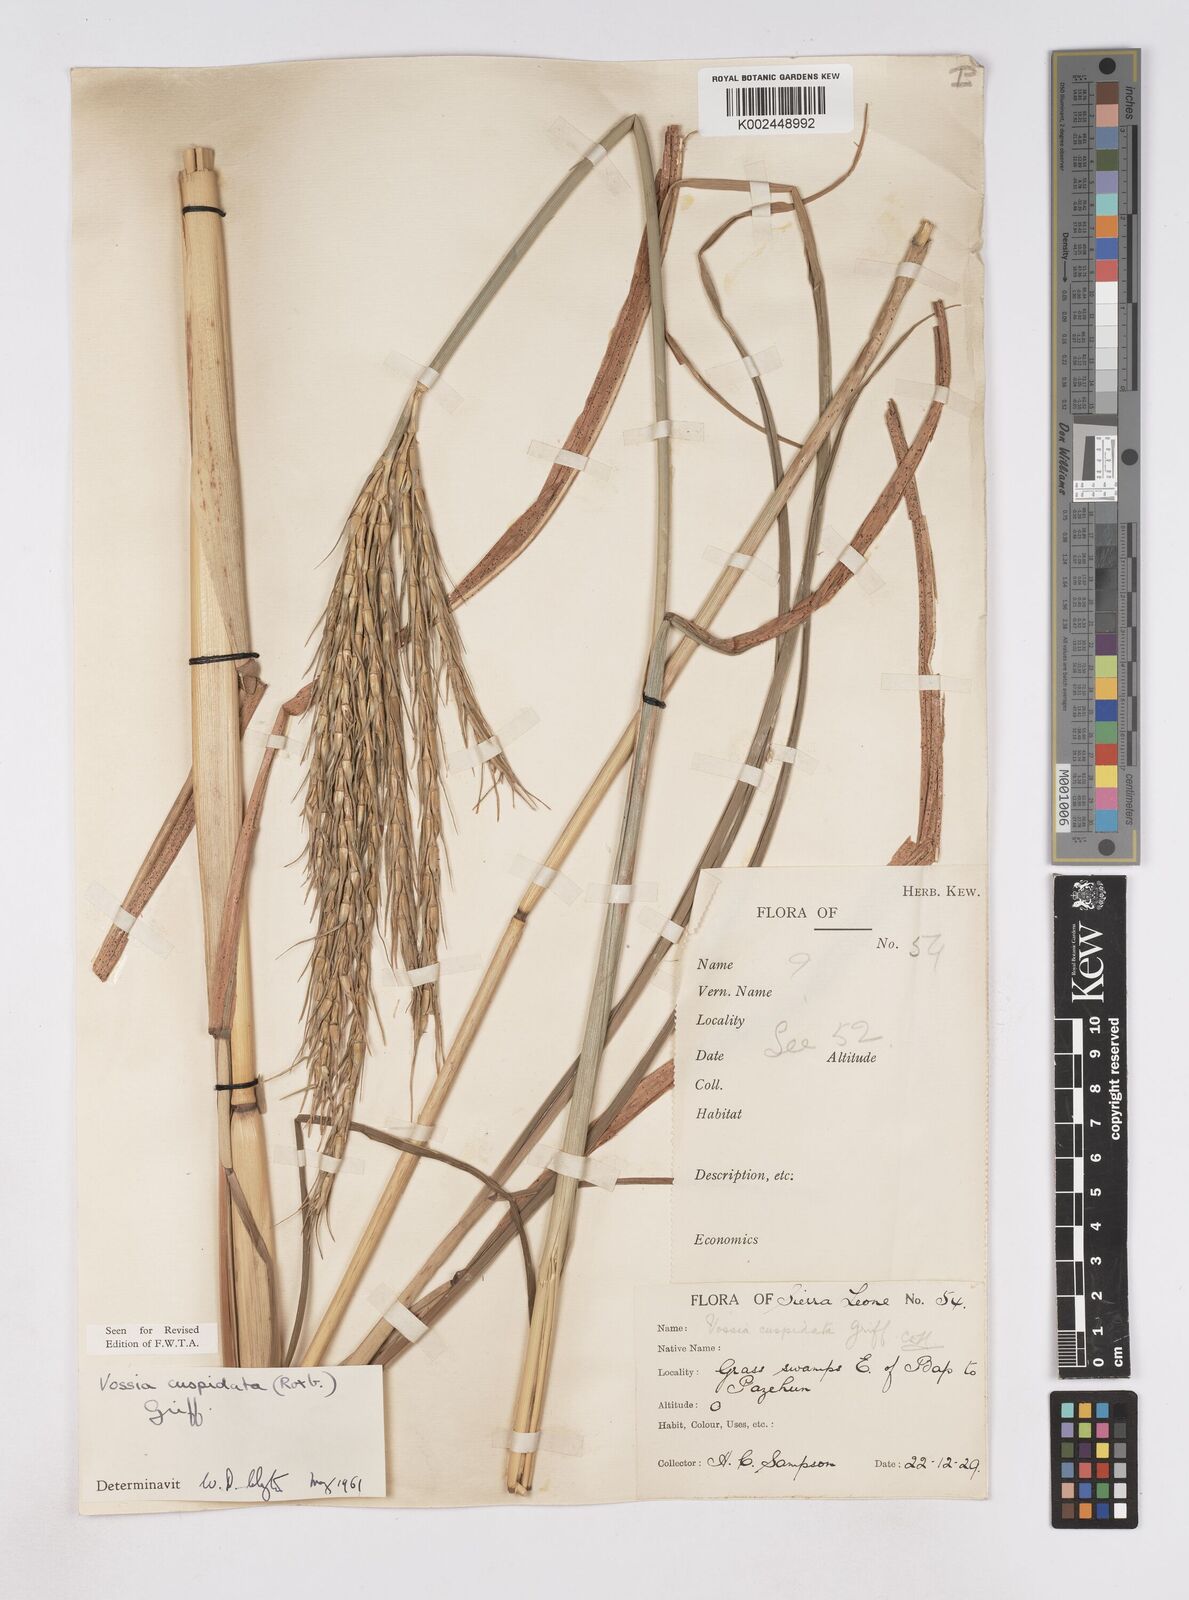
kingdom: Plantae
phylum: Tracheophyta
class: Liliopsida
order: Poales
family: Poaceae
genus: Vossia
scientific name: Vossia cuspidata
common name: Hippo grass
